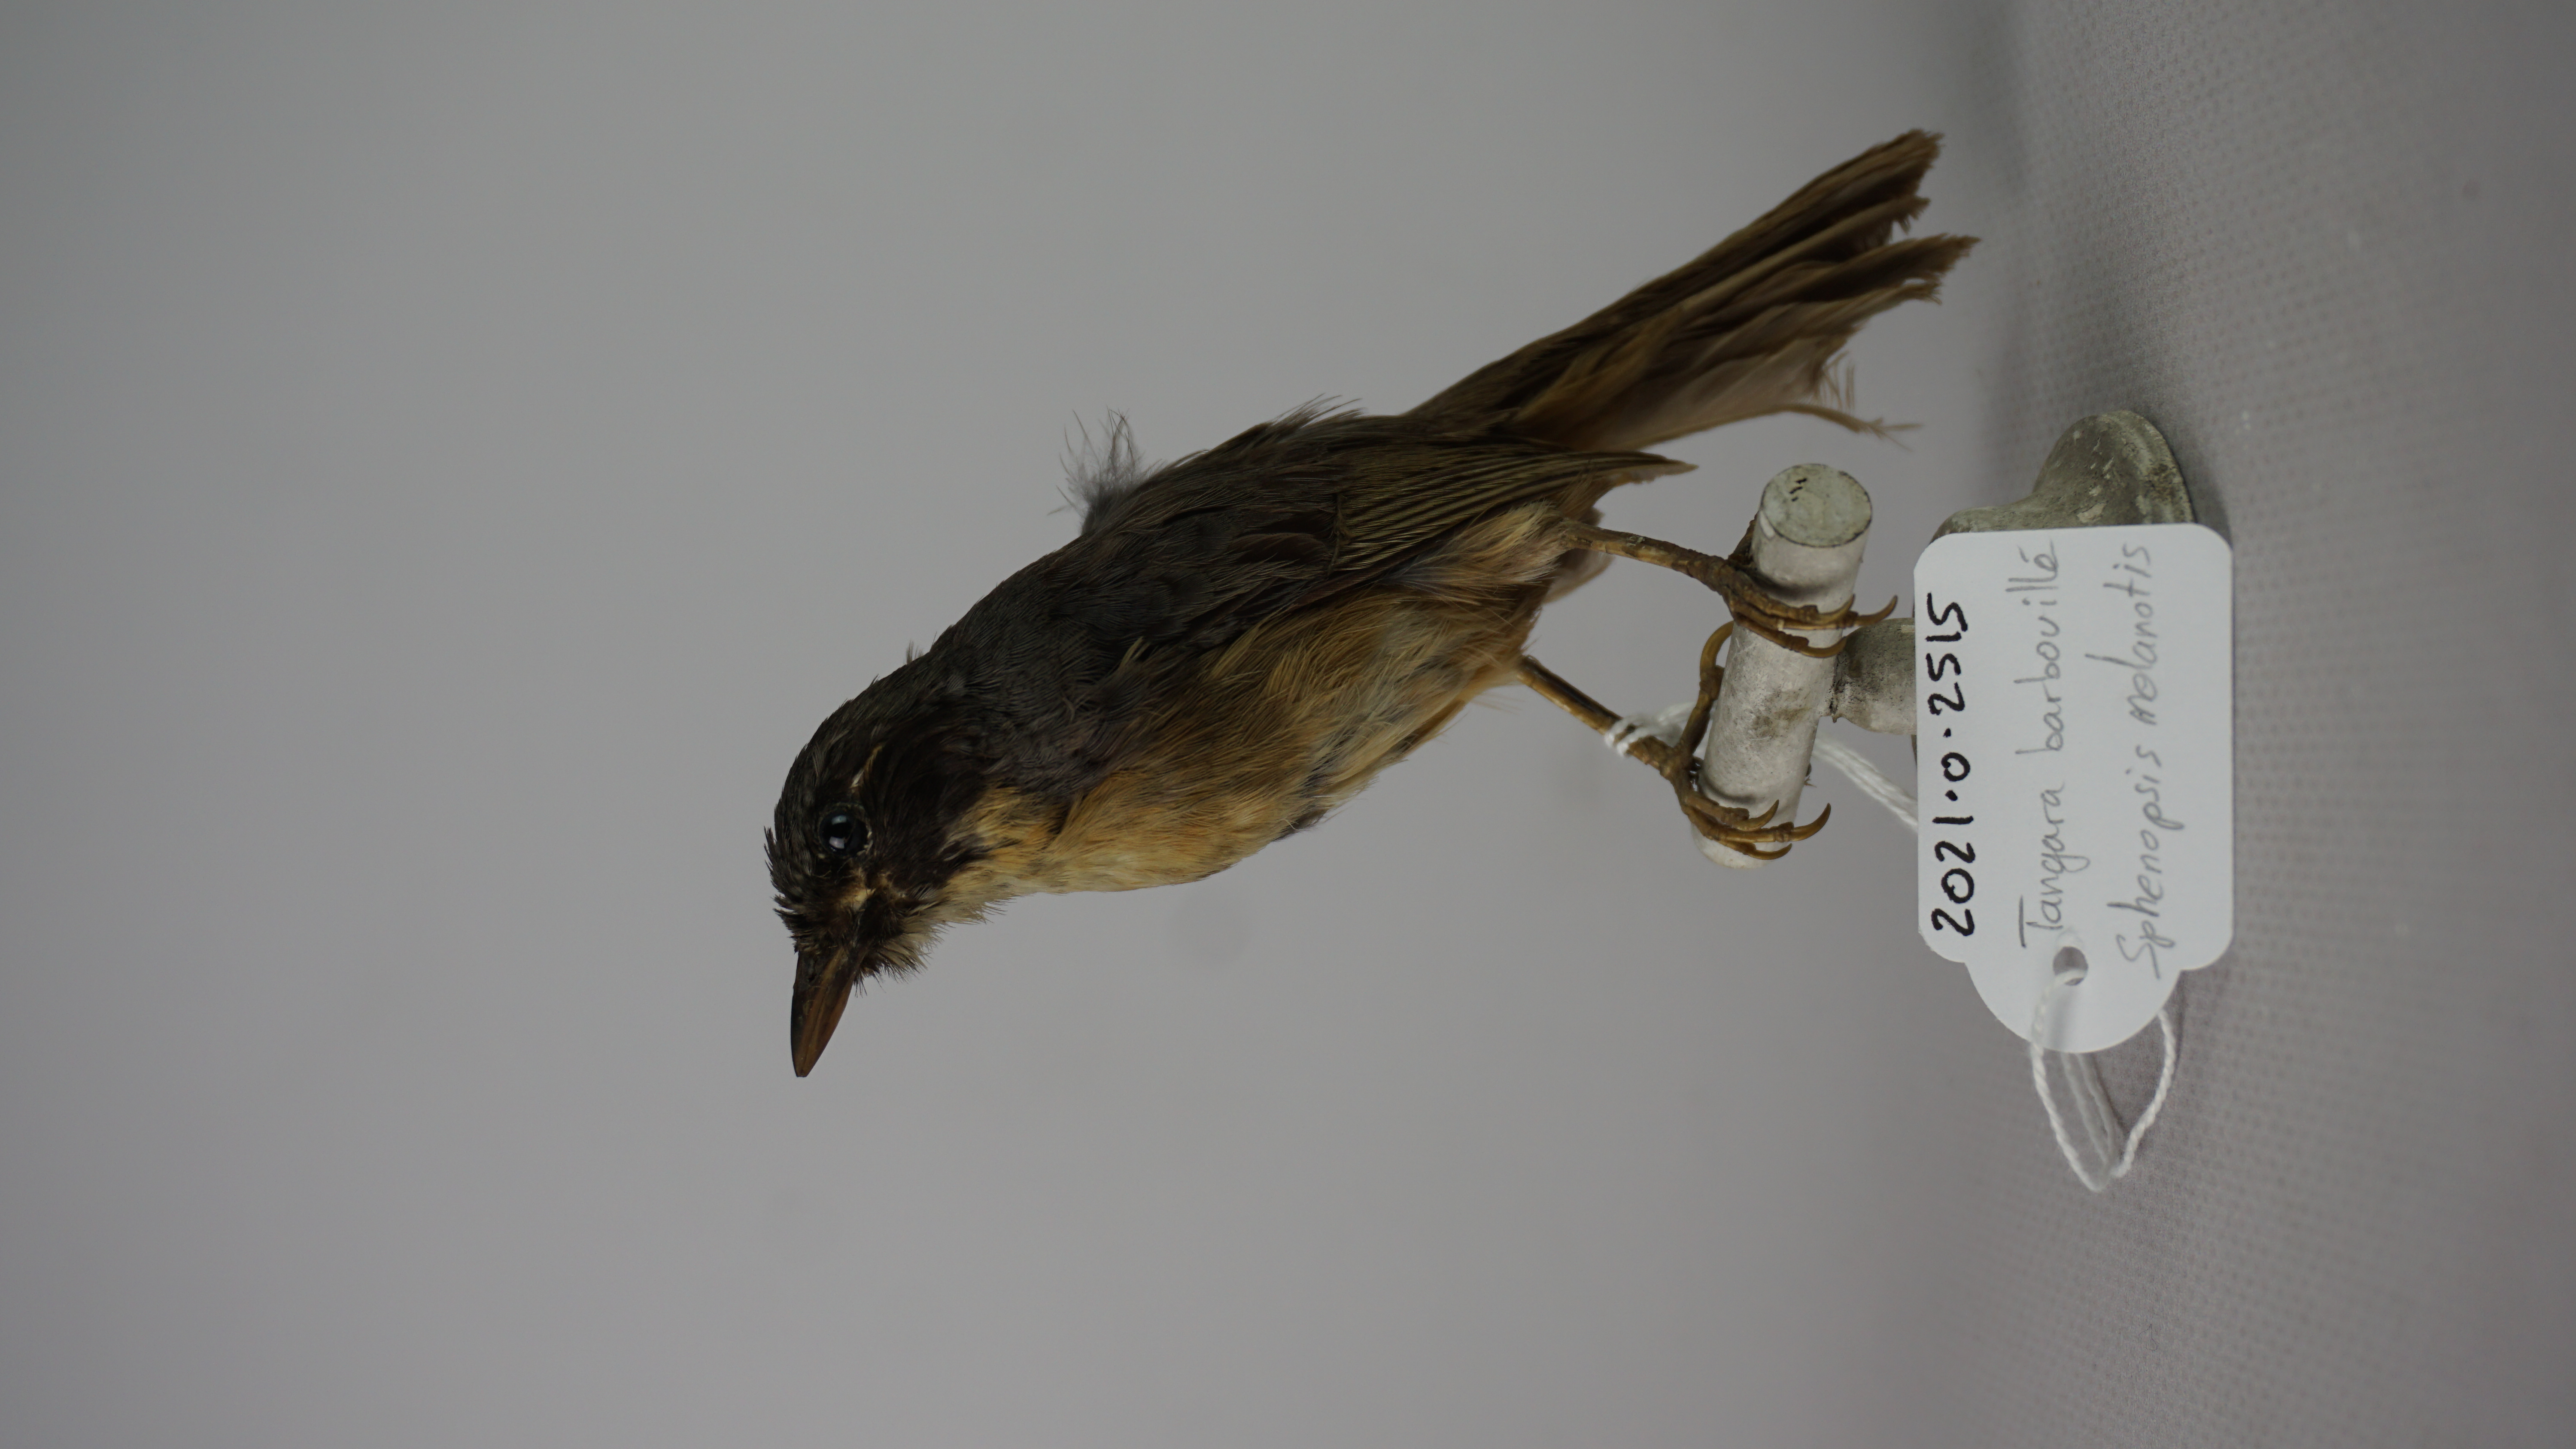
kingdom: Animalia
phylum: Chordata
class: Aves
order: Passeriformes
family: Thraupidae
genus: Sphenopsis
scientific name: Sphenopsis melanotis
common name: Black-eared hemispingus
